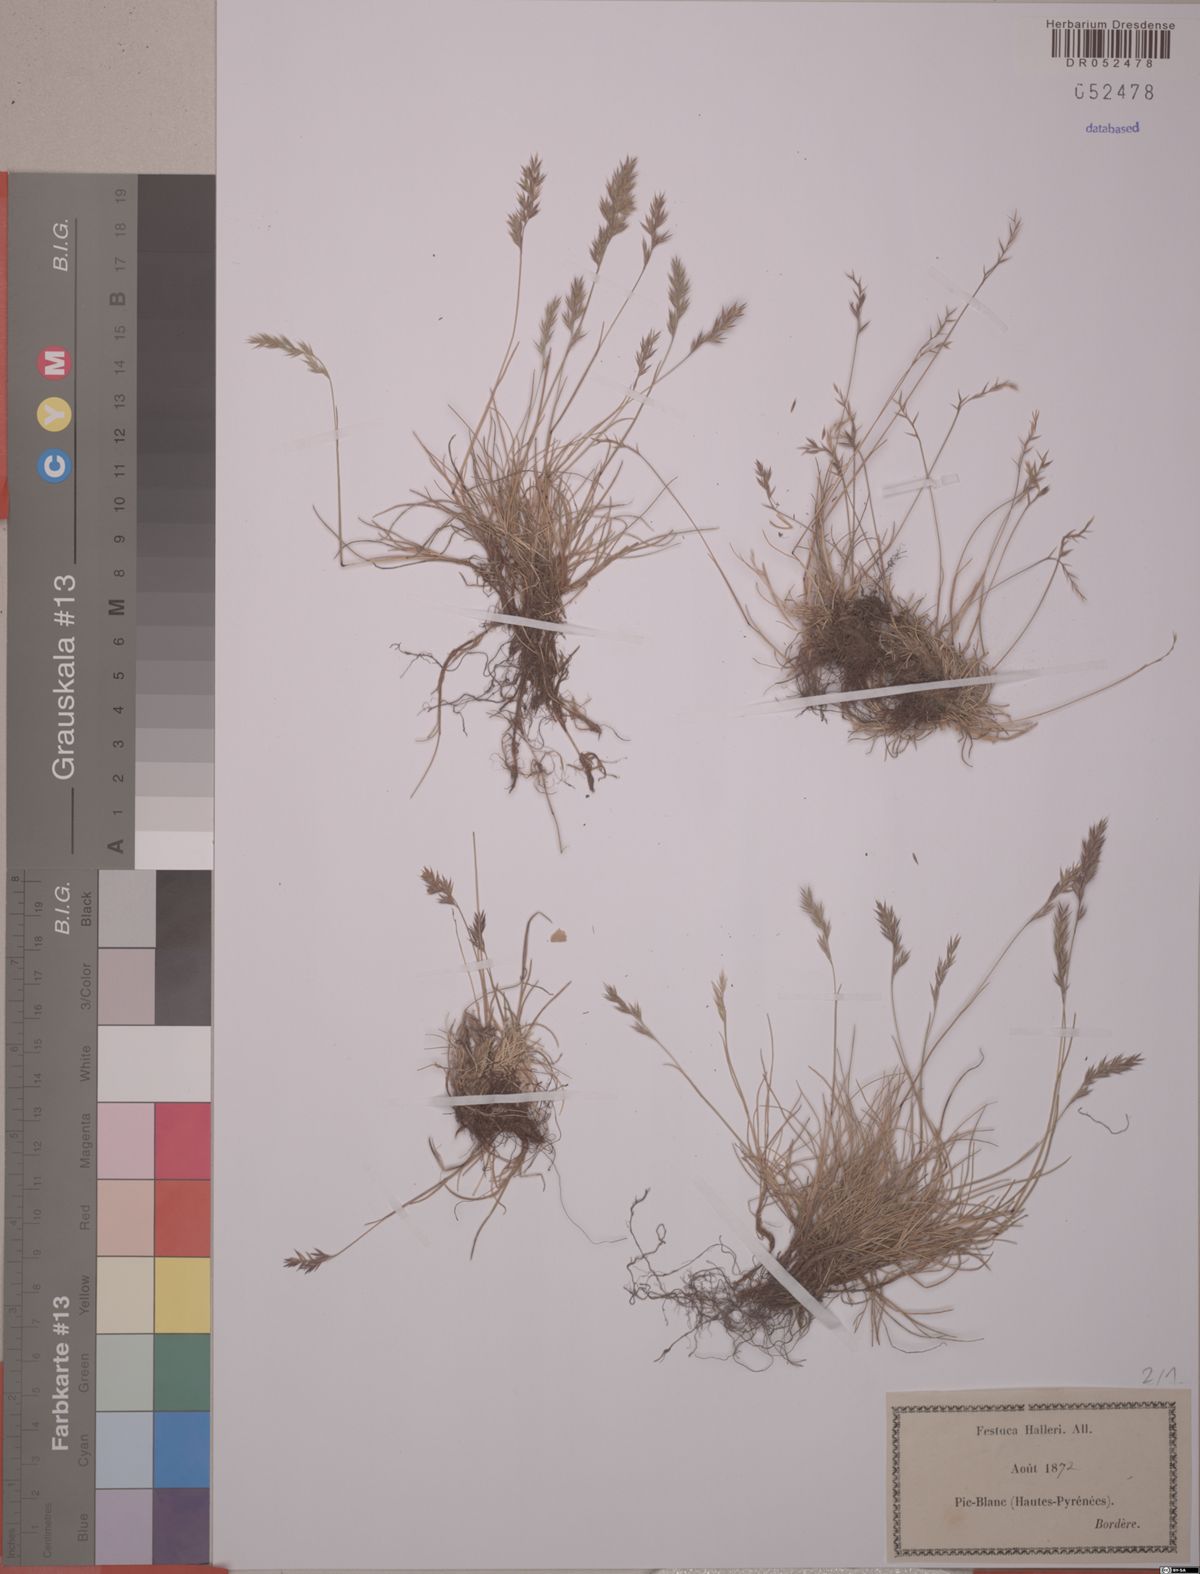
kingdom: Plantae
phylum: Tracheophyta
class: Liliopsida
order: Poales
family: Poaceae
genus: Festuca
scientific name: Festuca halleri
